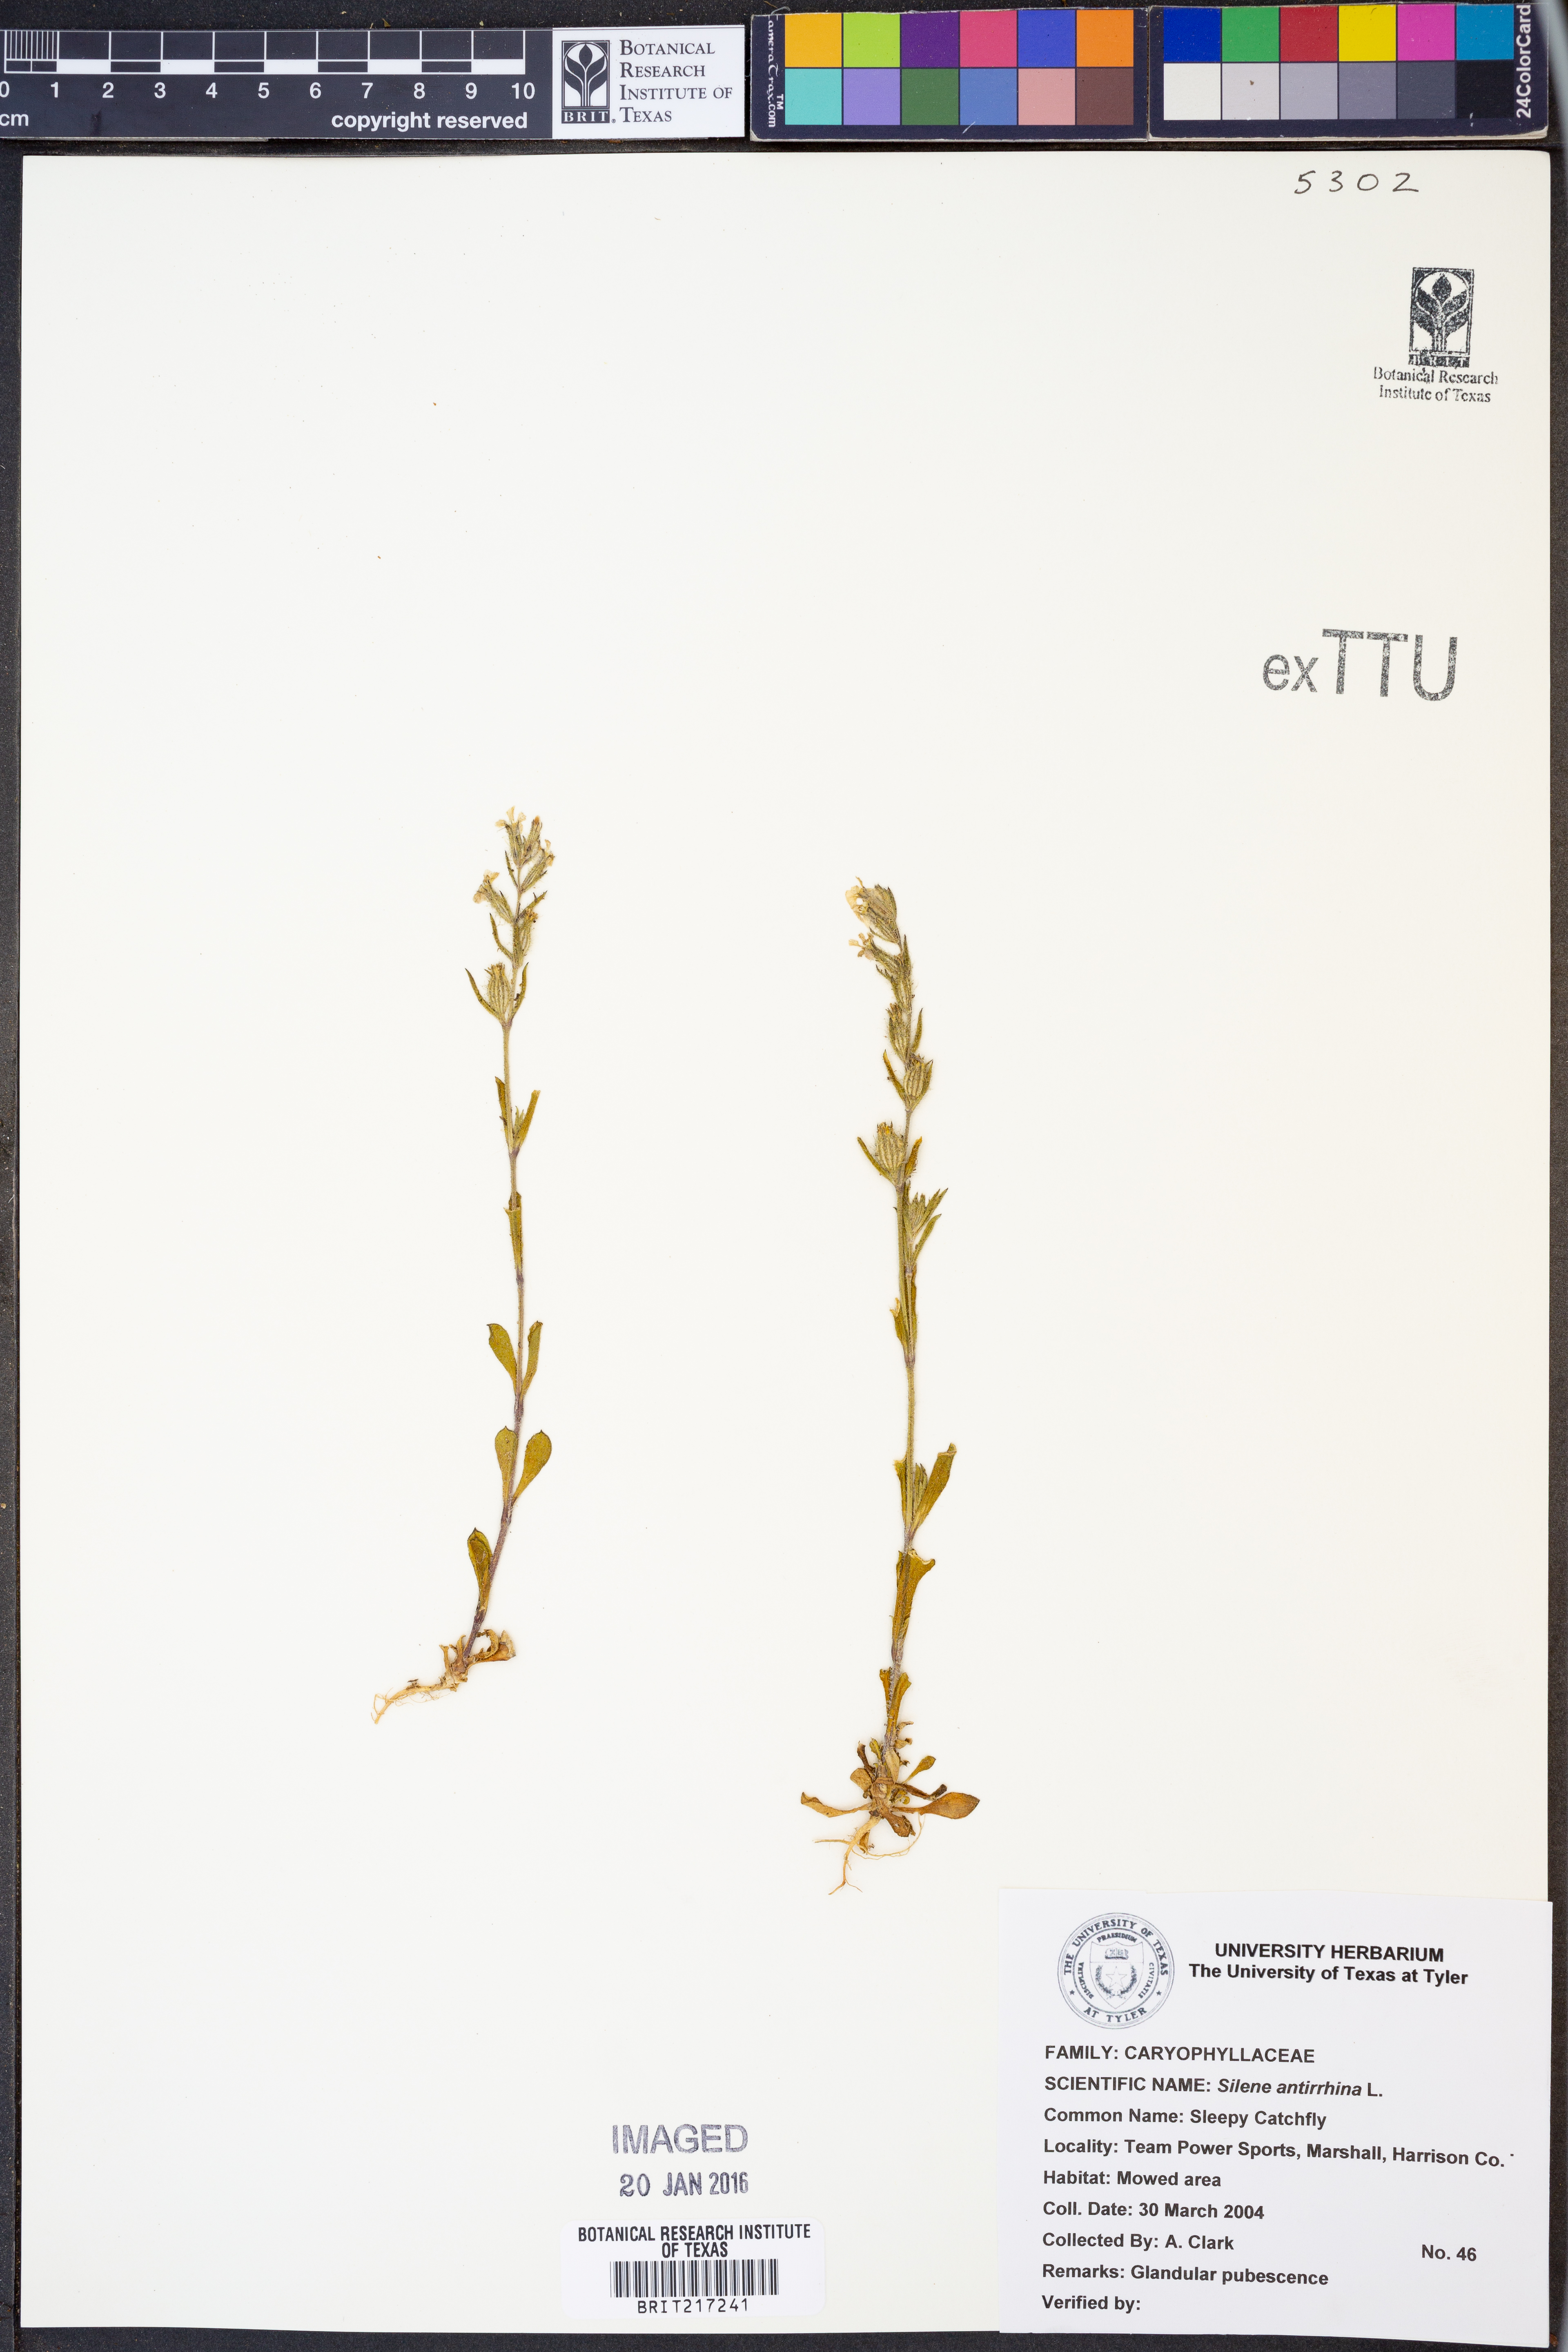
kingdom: Plantae
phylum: Tracheophyta
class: Magnoliopsida
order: Caryophyllales
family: Caryophyllaceae
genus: Silene
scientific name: Silene antirrhina
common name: Sleepy catchfly
